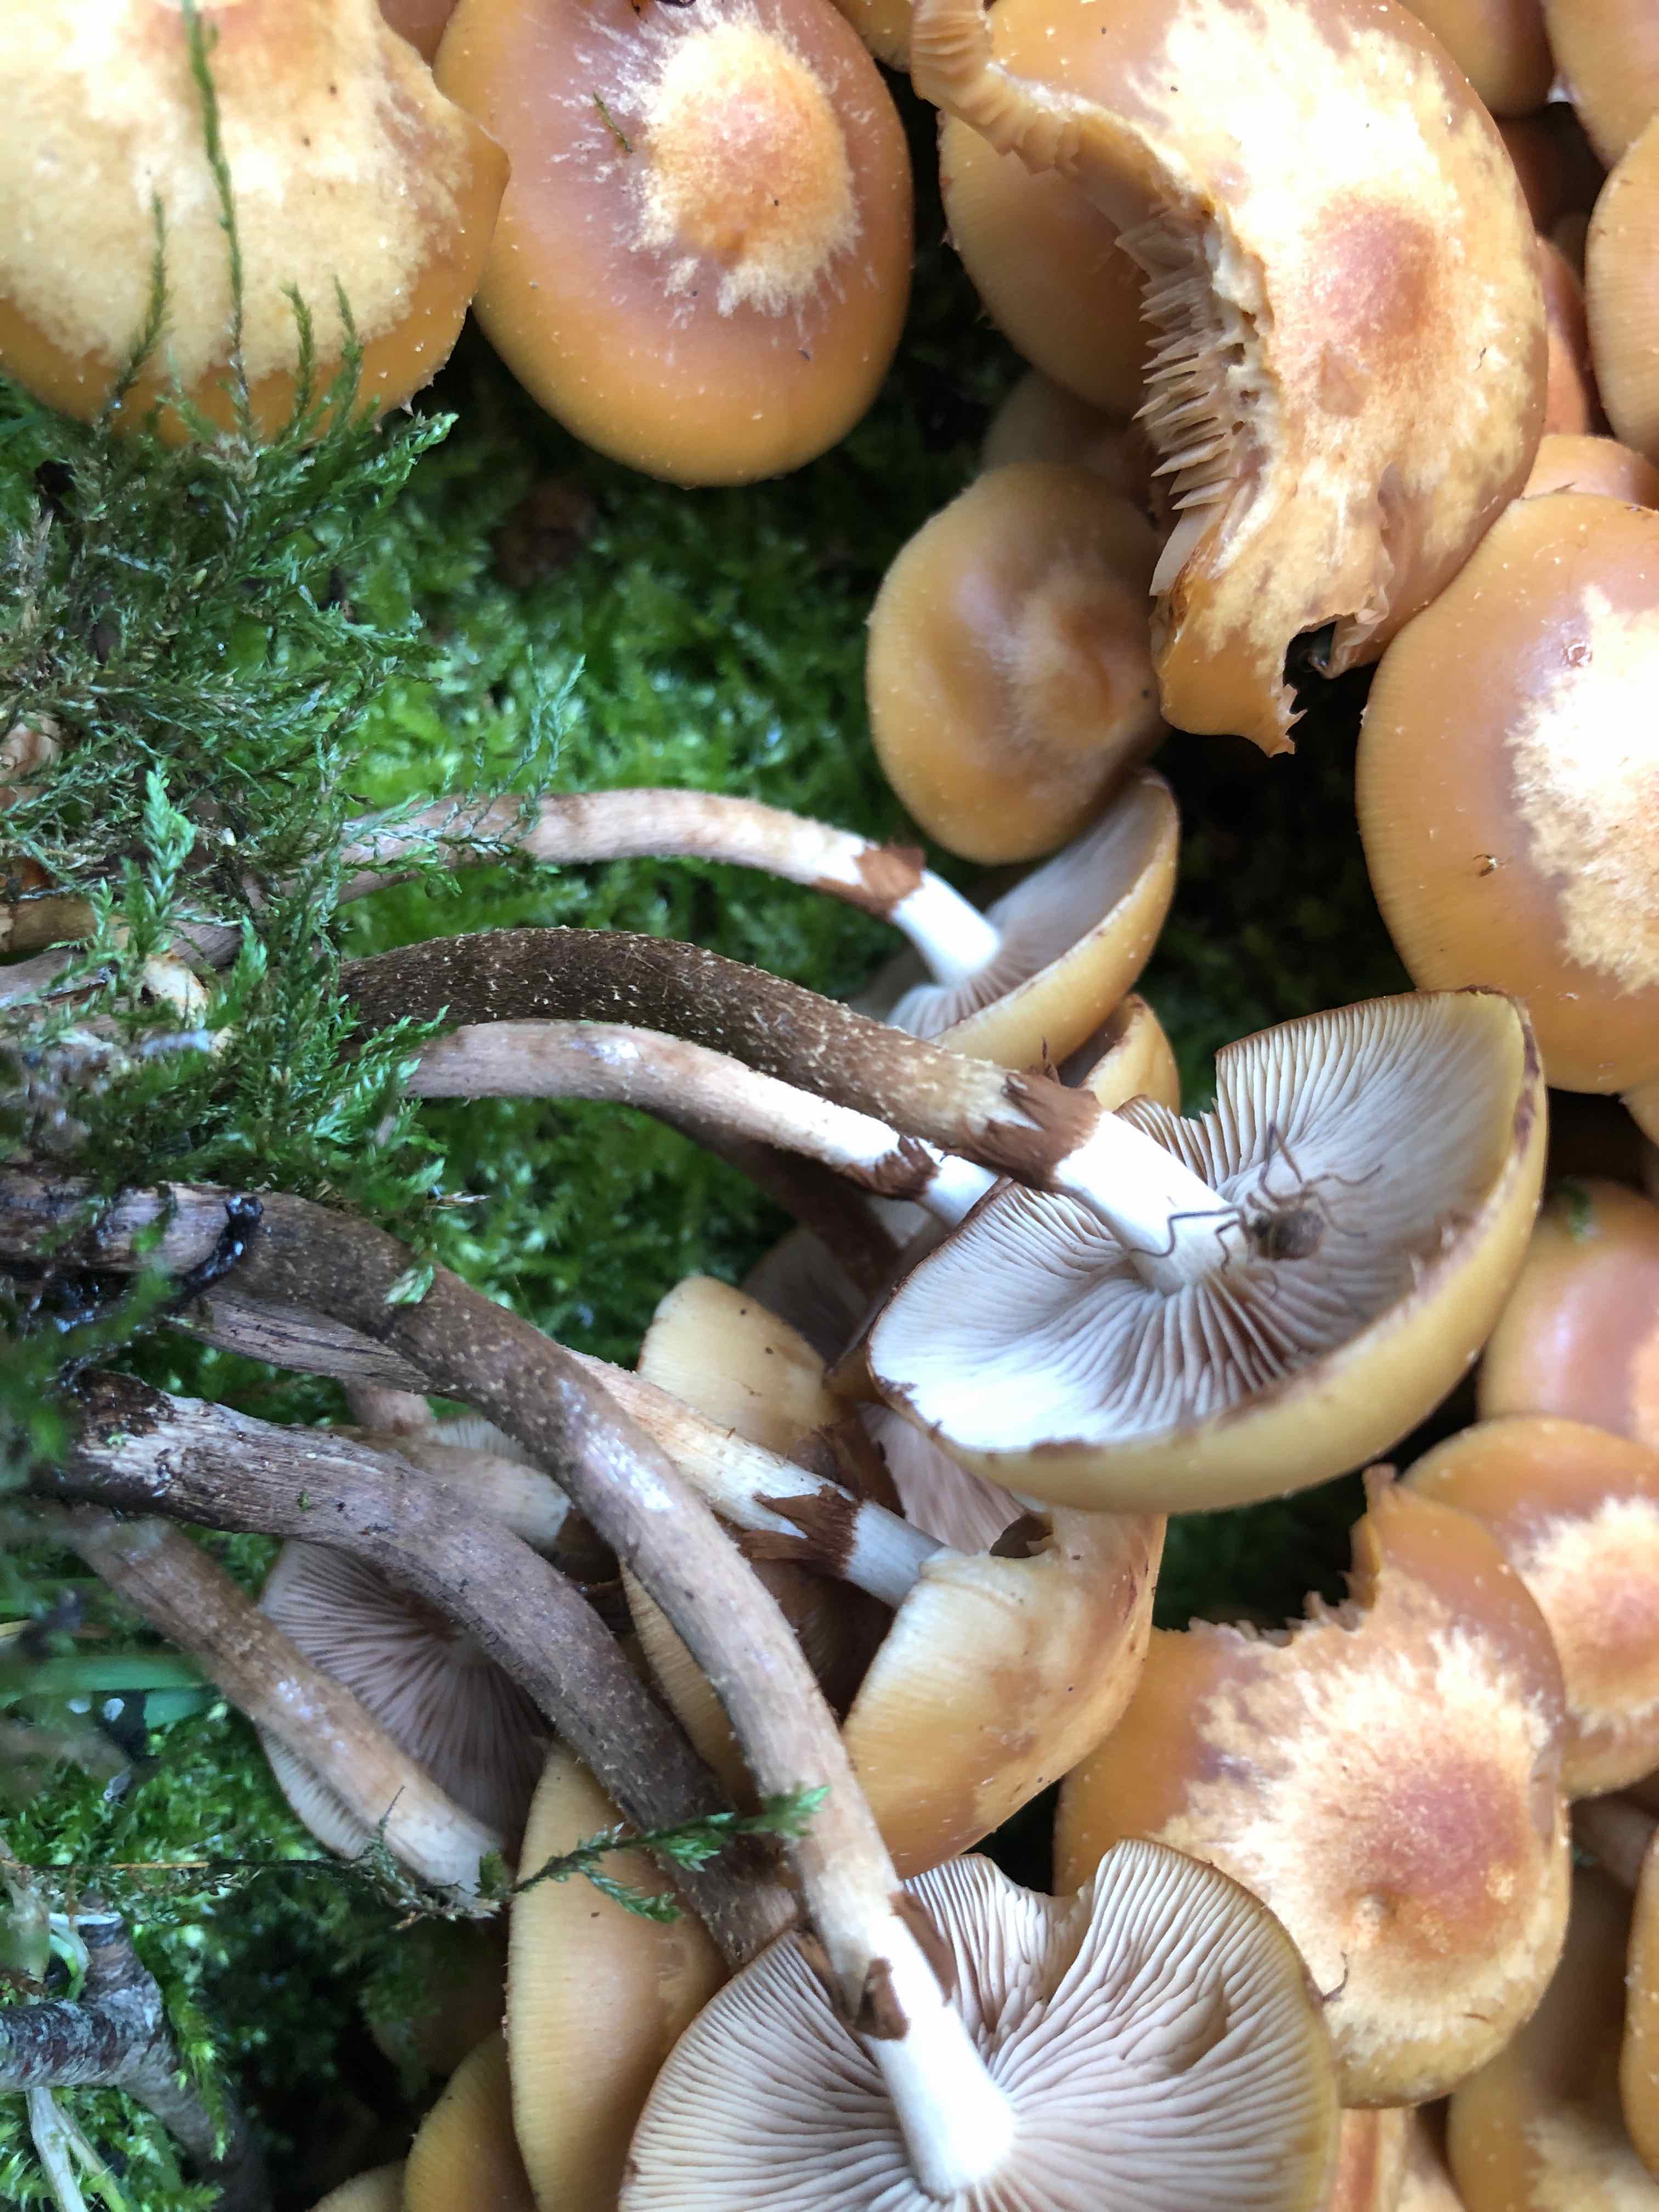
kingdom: Fungi
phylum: Basidiomycota
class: Agaricomycetes
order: Agaricales
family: Strophariaceae
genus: Kuehneromyces
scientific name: Kuehneromyces mutabilis
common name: foranderlig skælhat
